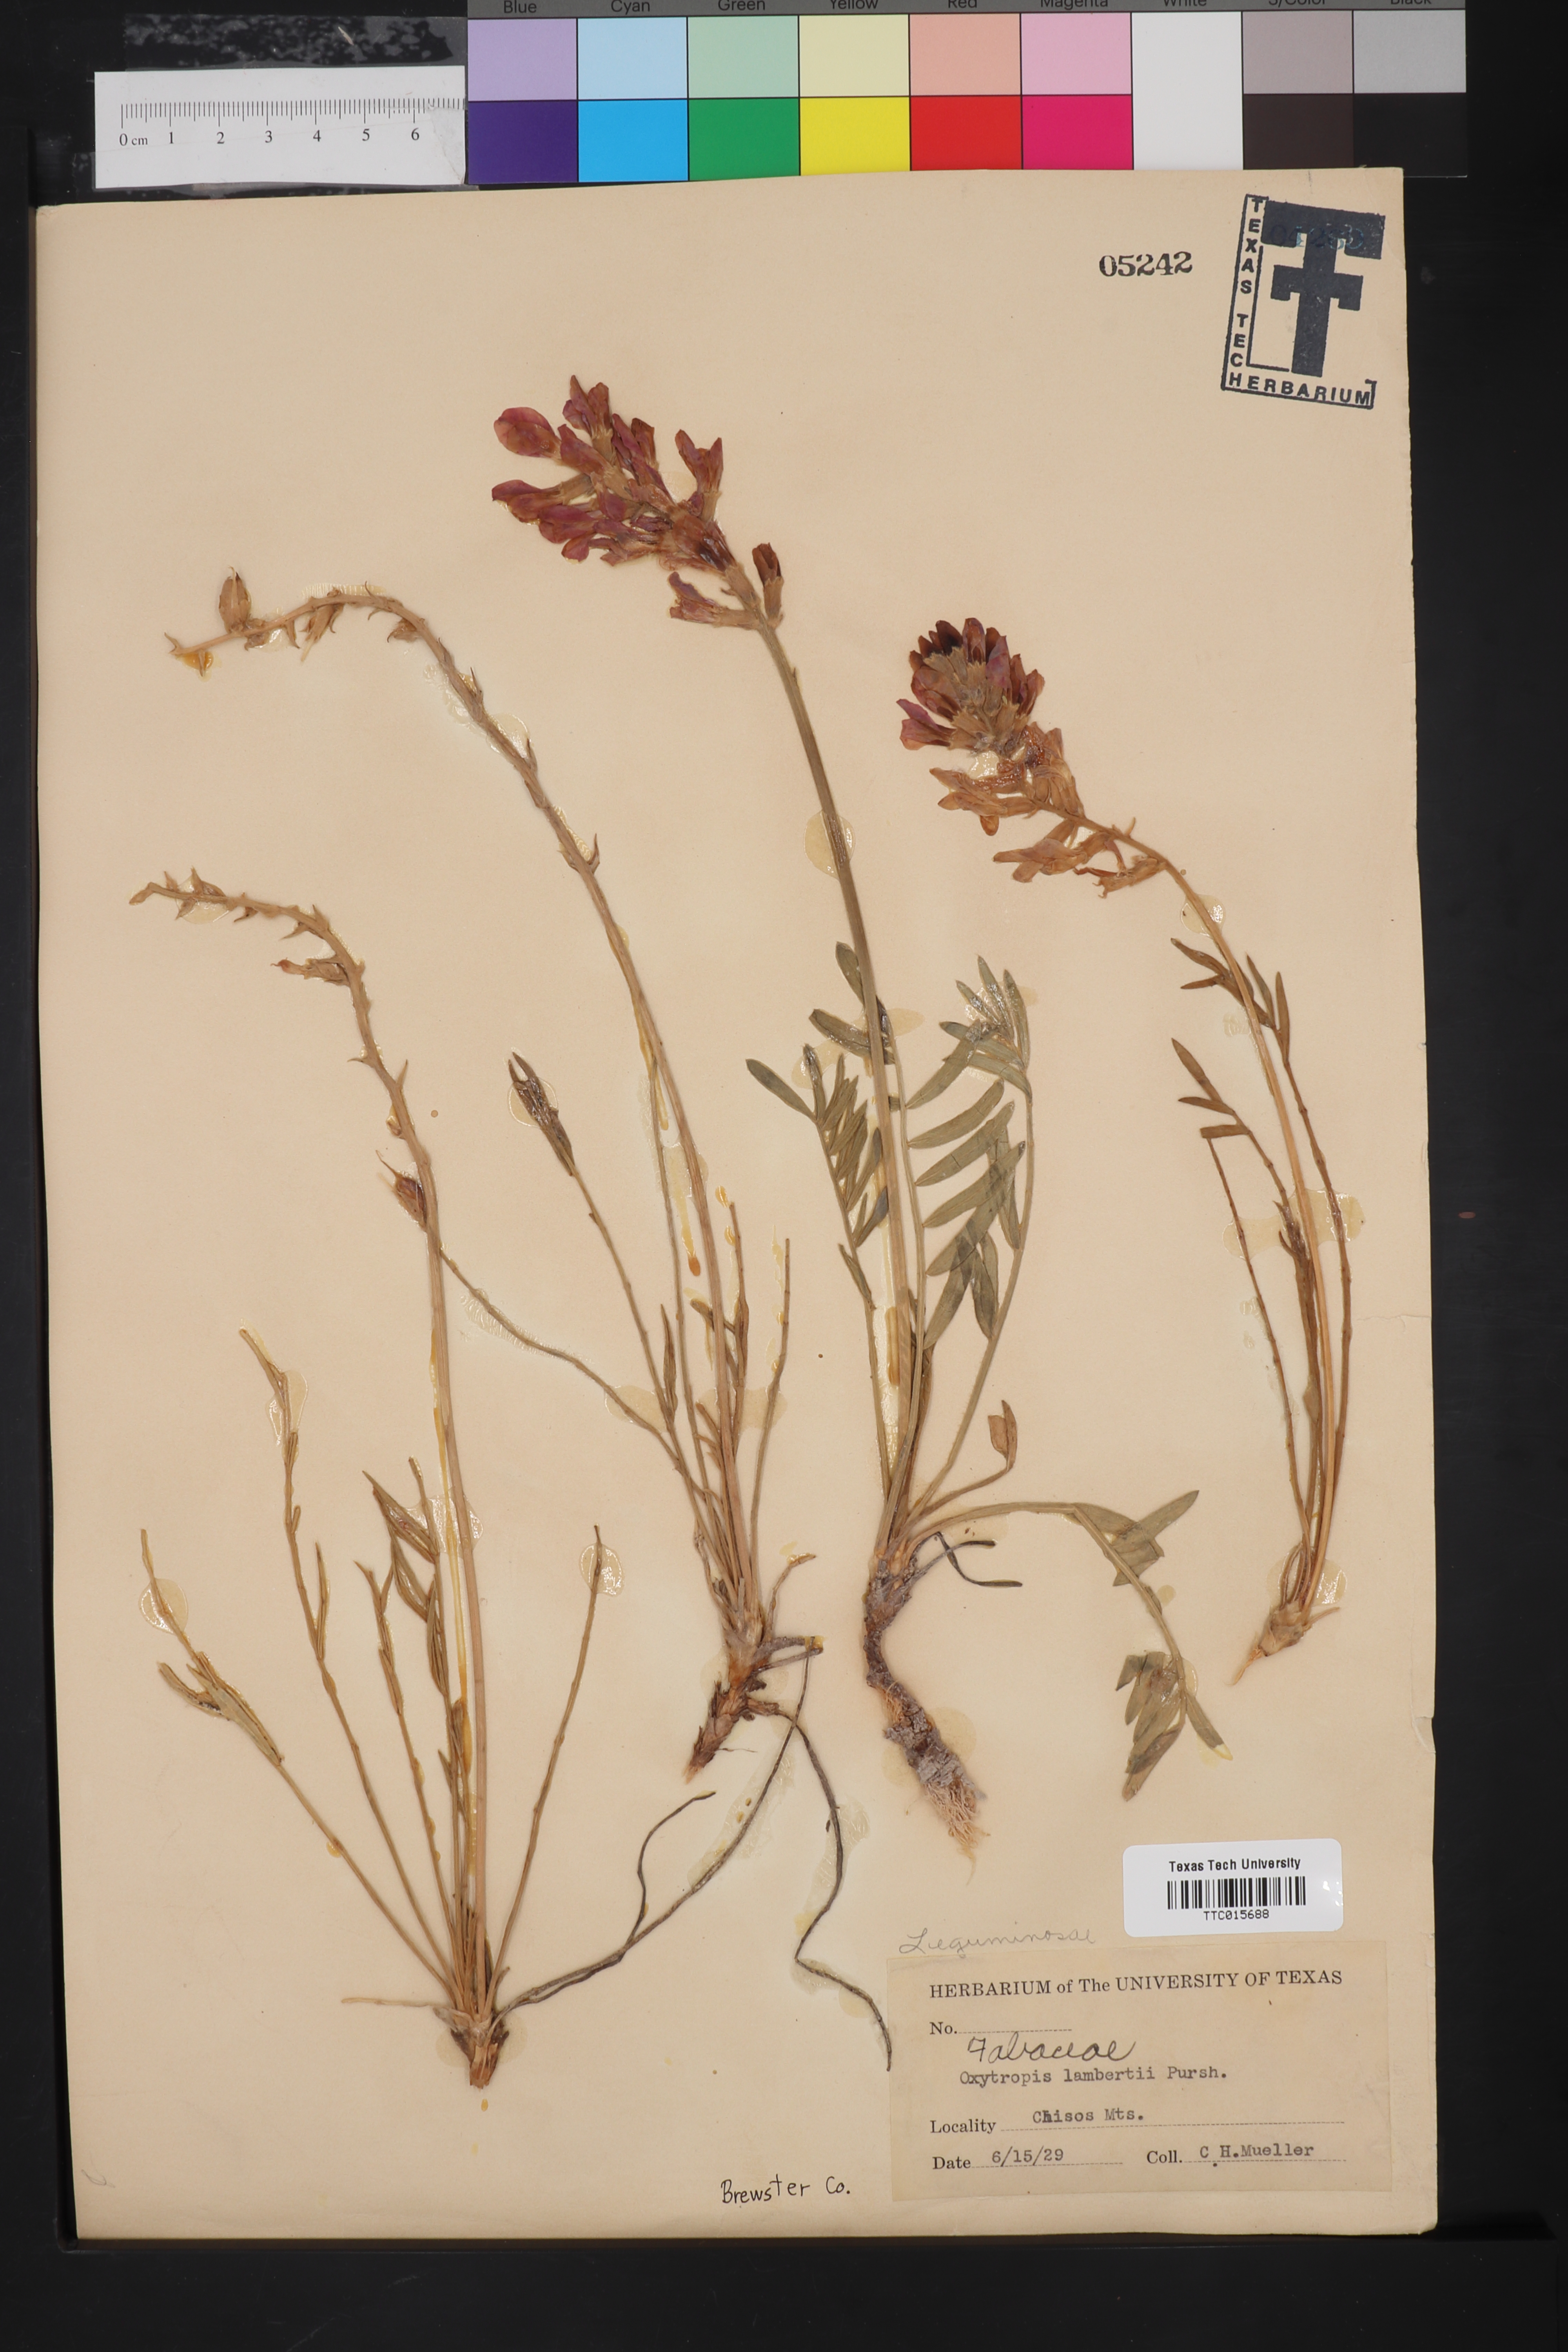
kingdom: Plantae
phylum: Tracheophyta
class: Magnoliopsida
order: Fabales
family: Fabaceae
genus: Oxytropis
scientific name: Oxytropis lambertii
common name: Purple locoweed
